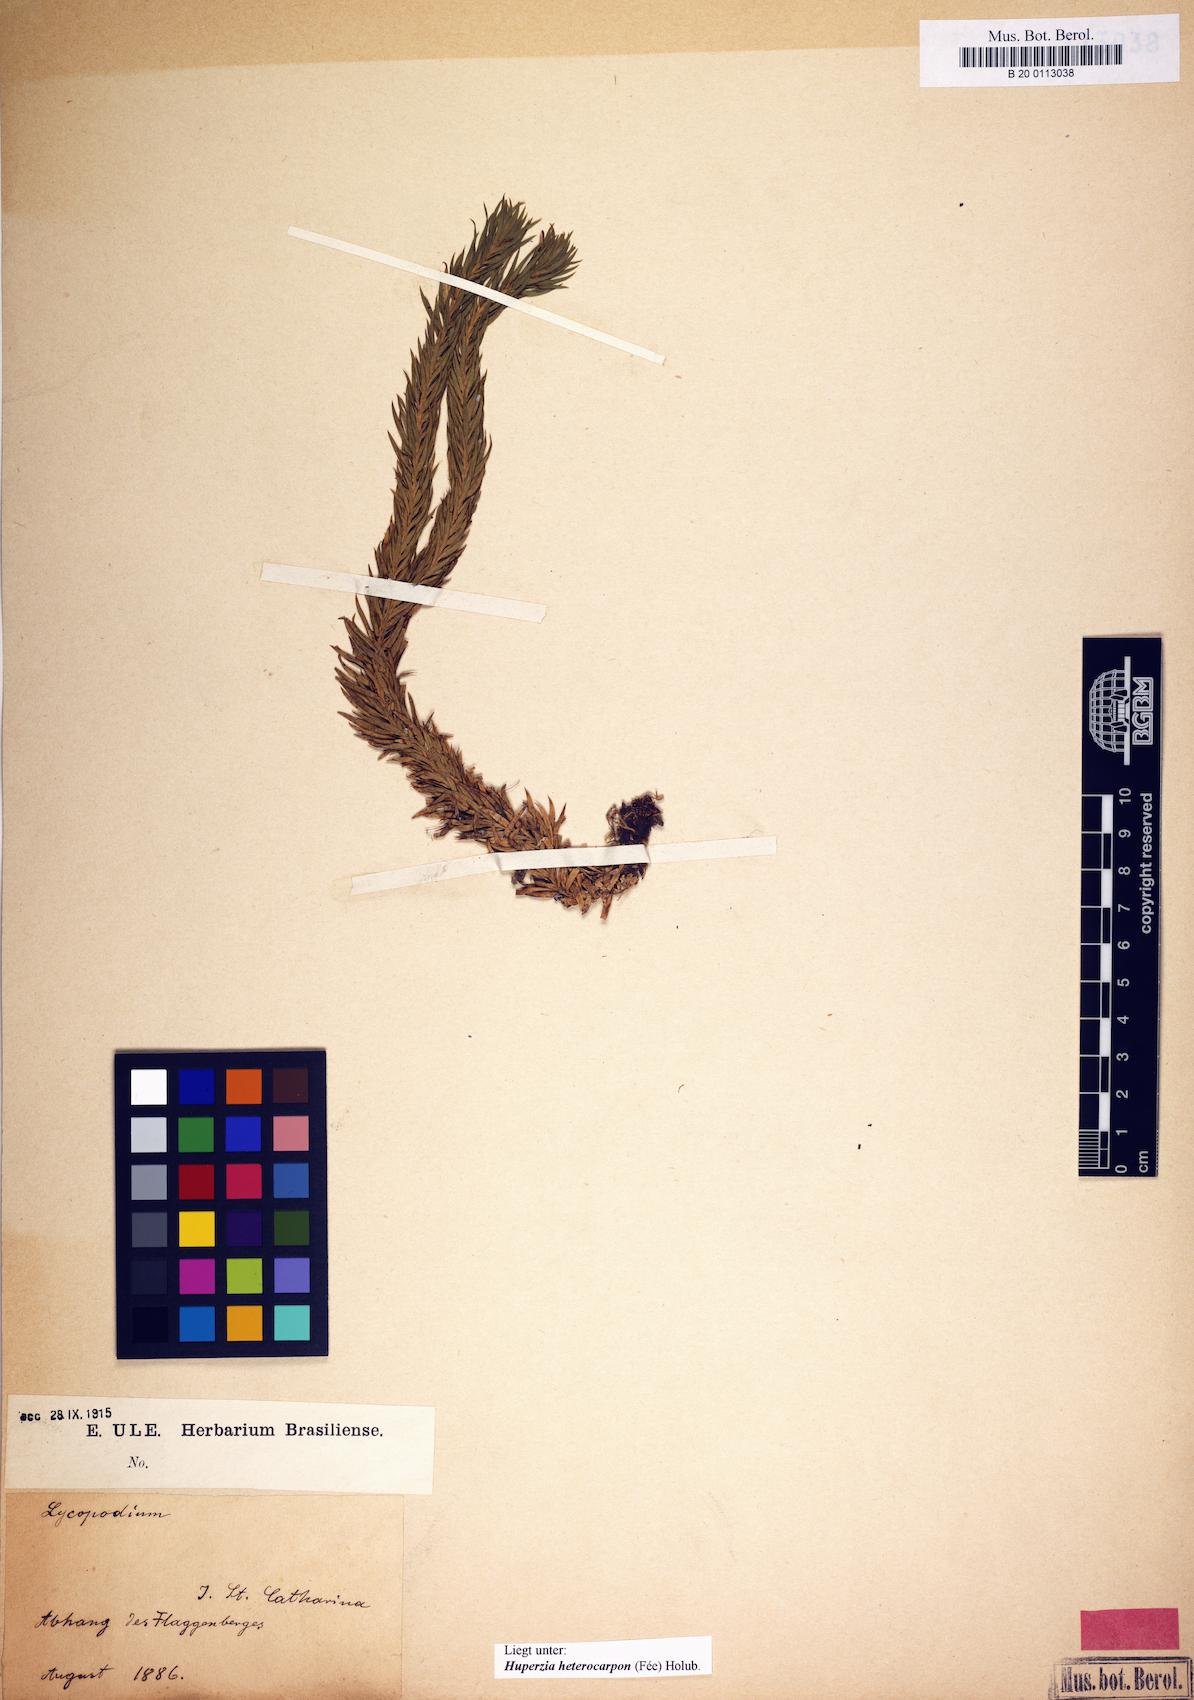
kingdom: Plantae
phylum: Tracheophyta
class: Lycopodiopsida
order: Lycopodiales
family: Lycopodiaceae
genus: Phlegmariurus
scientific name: Phlegmariurus heterocarpos
